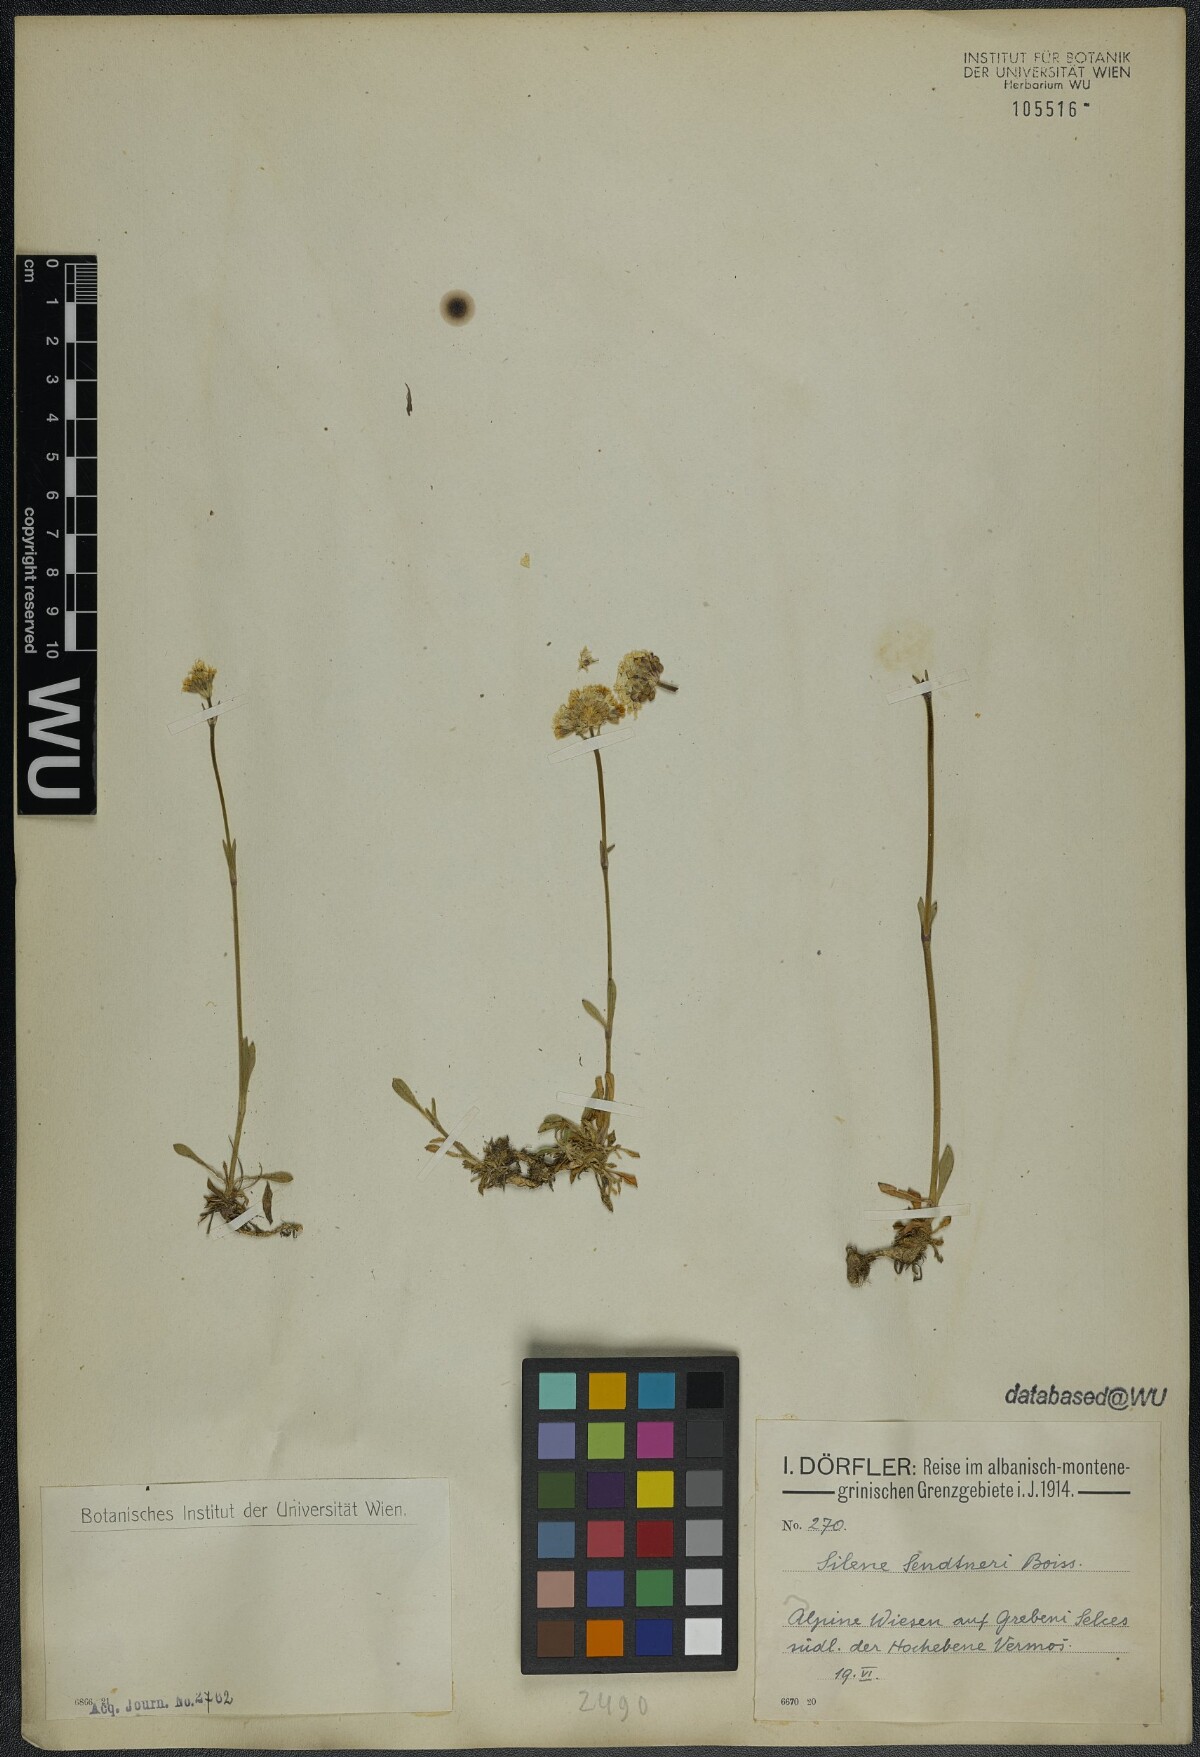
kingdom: Plantae
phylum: Tracheophyta
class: Magnoliopsida
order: Caryophyllales
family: Caryophyllaceae
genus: Silene
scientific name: Silene sendtneri
